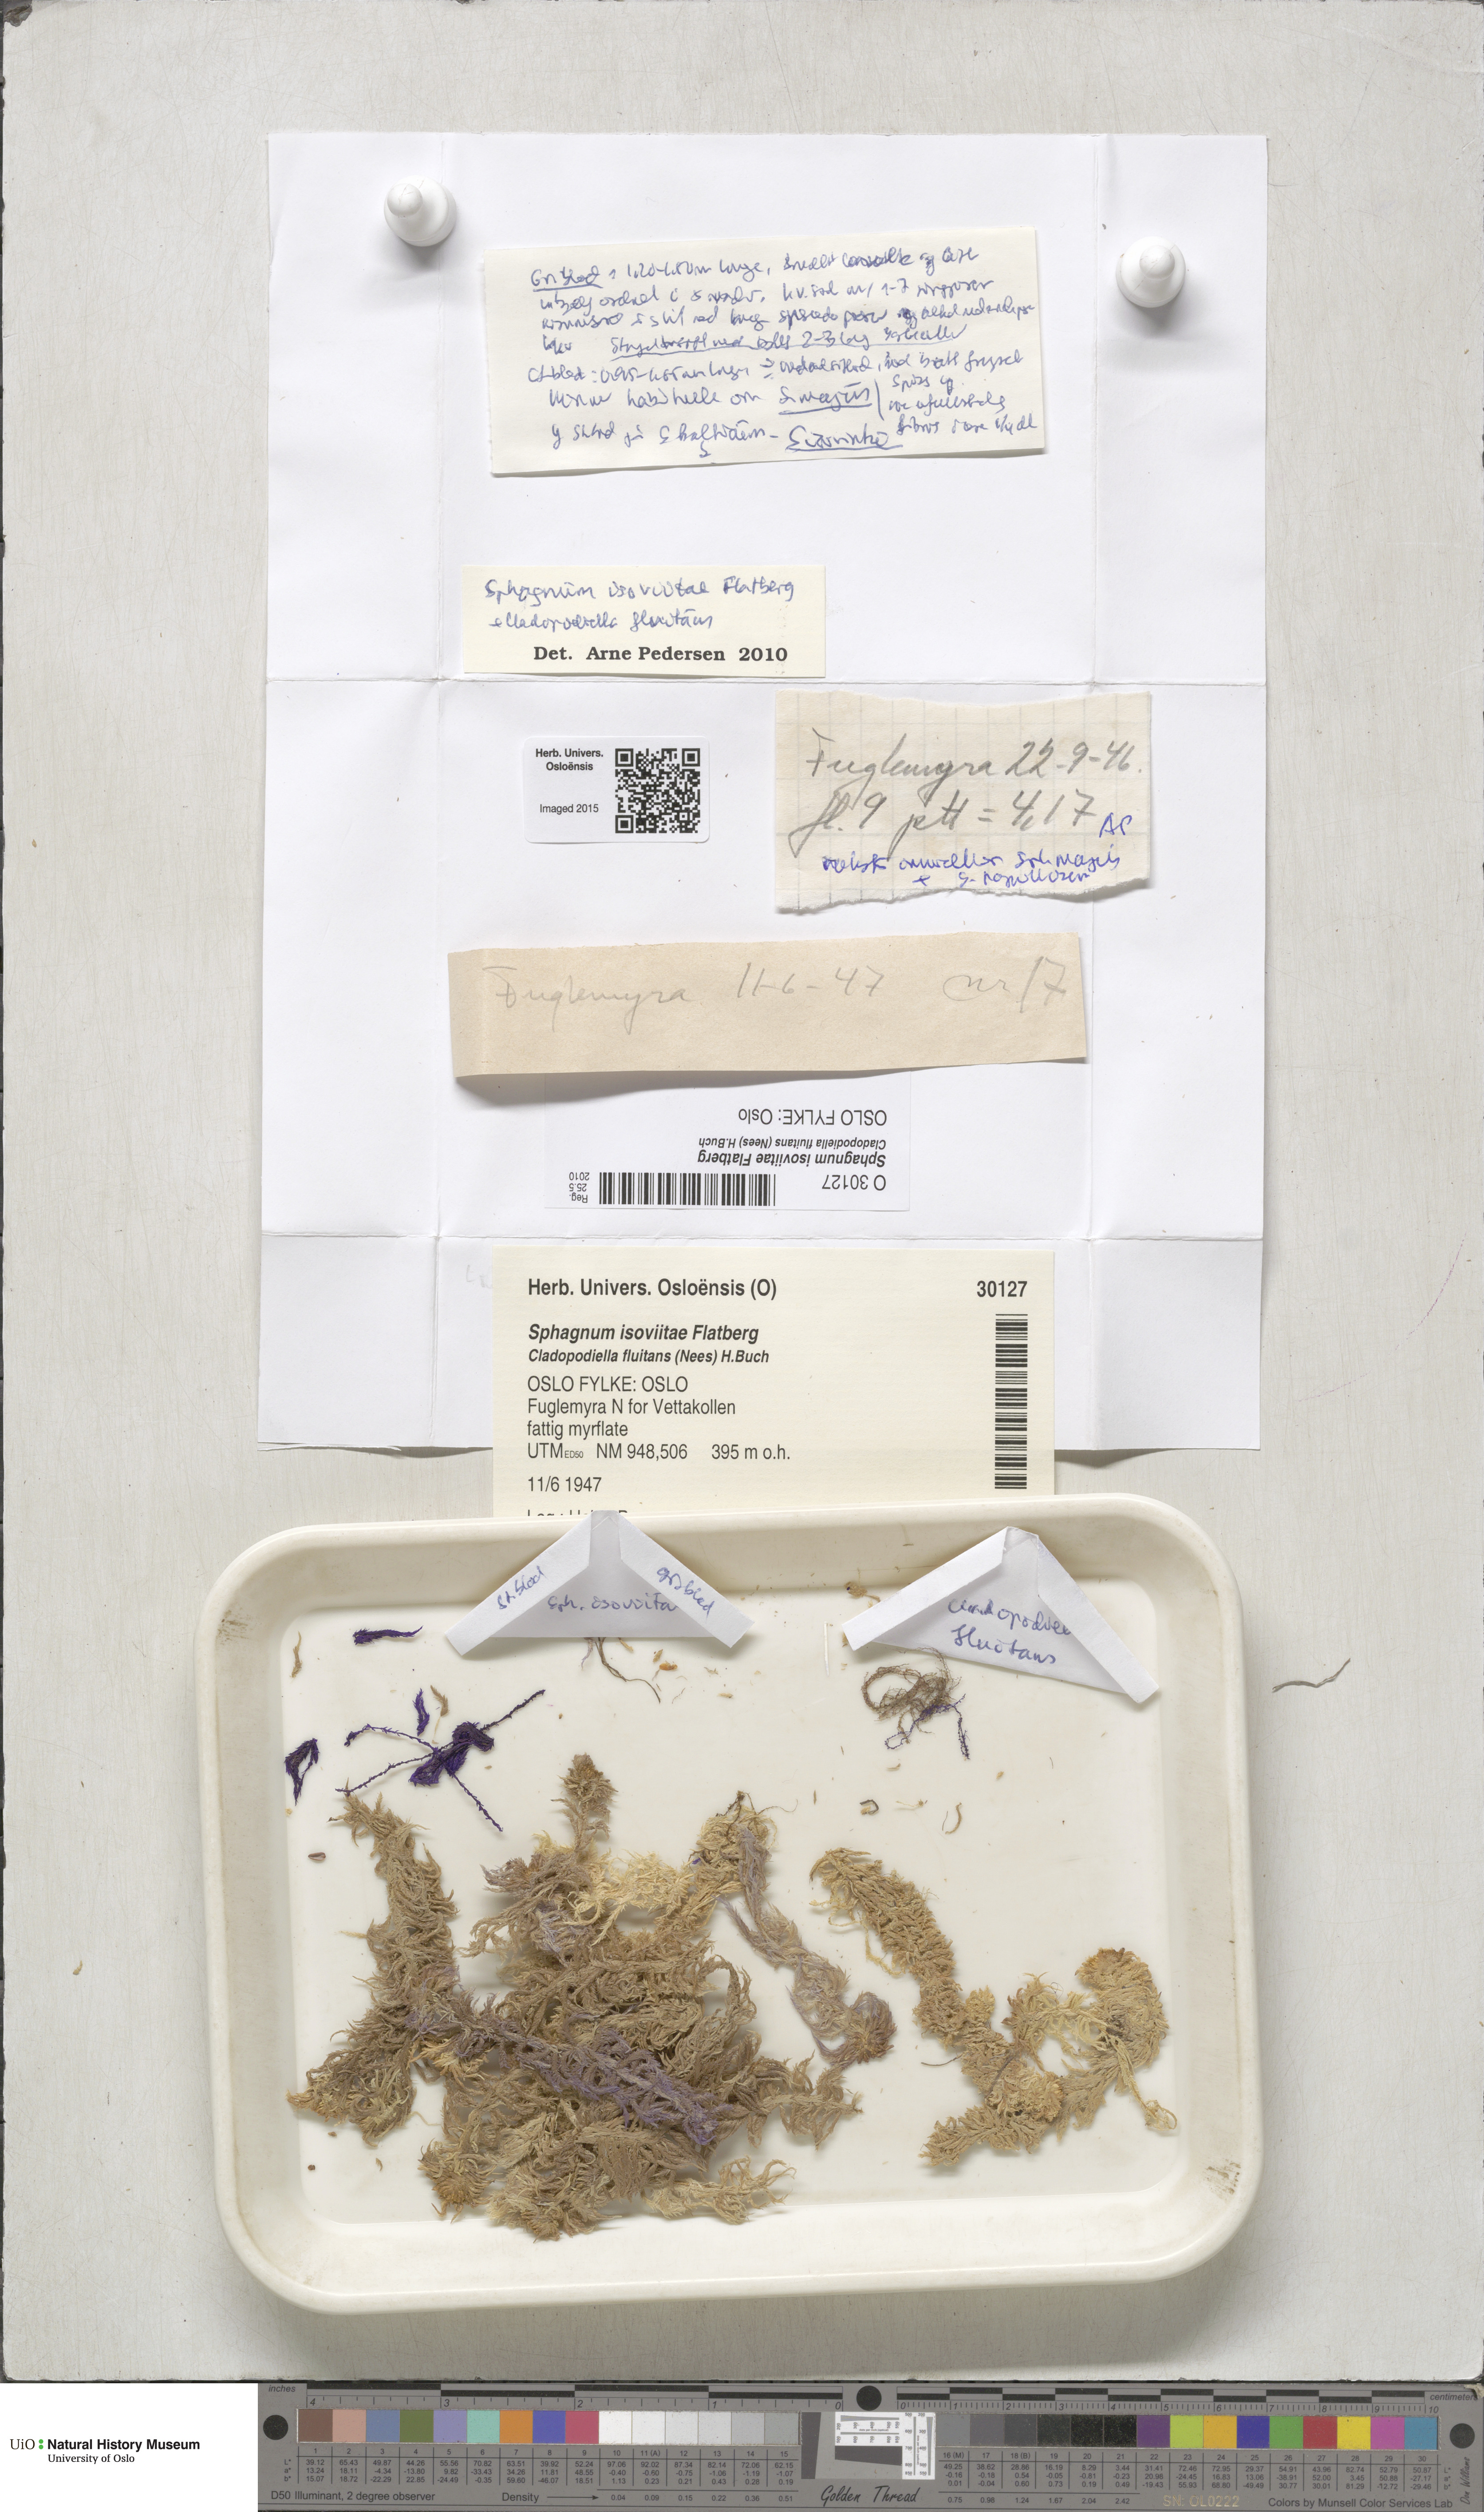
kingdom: Plantae
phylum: Bryophyta
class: Sphagnopsida
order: Sphagnales
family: Sphagnaceae
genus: Sphagnum
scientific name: Sphagnum fallax
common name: Flat-top peat moss
